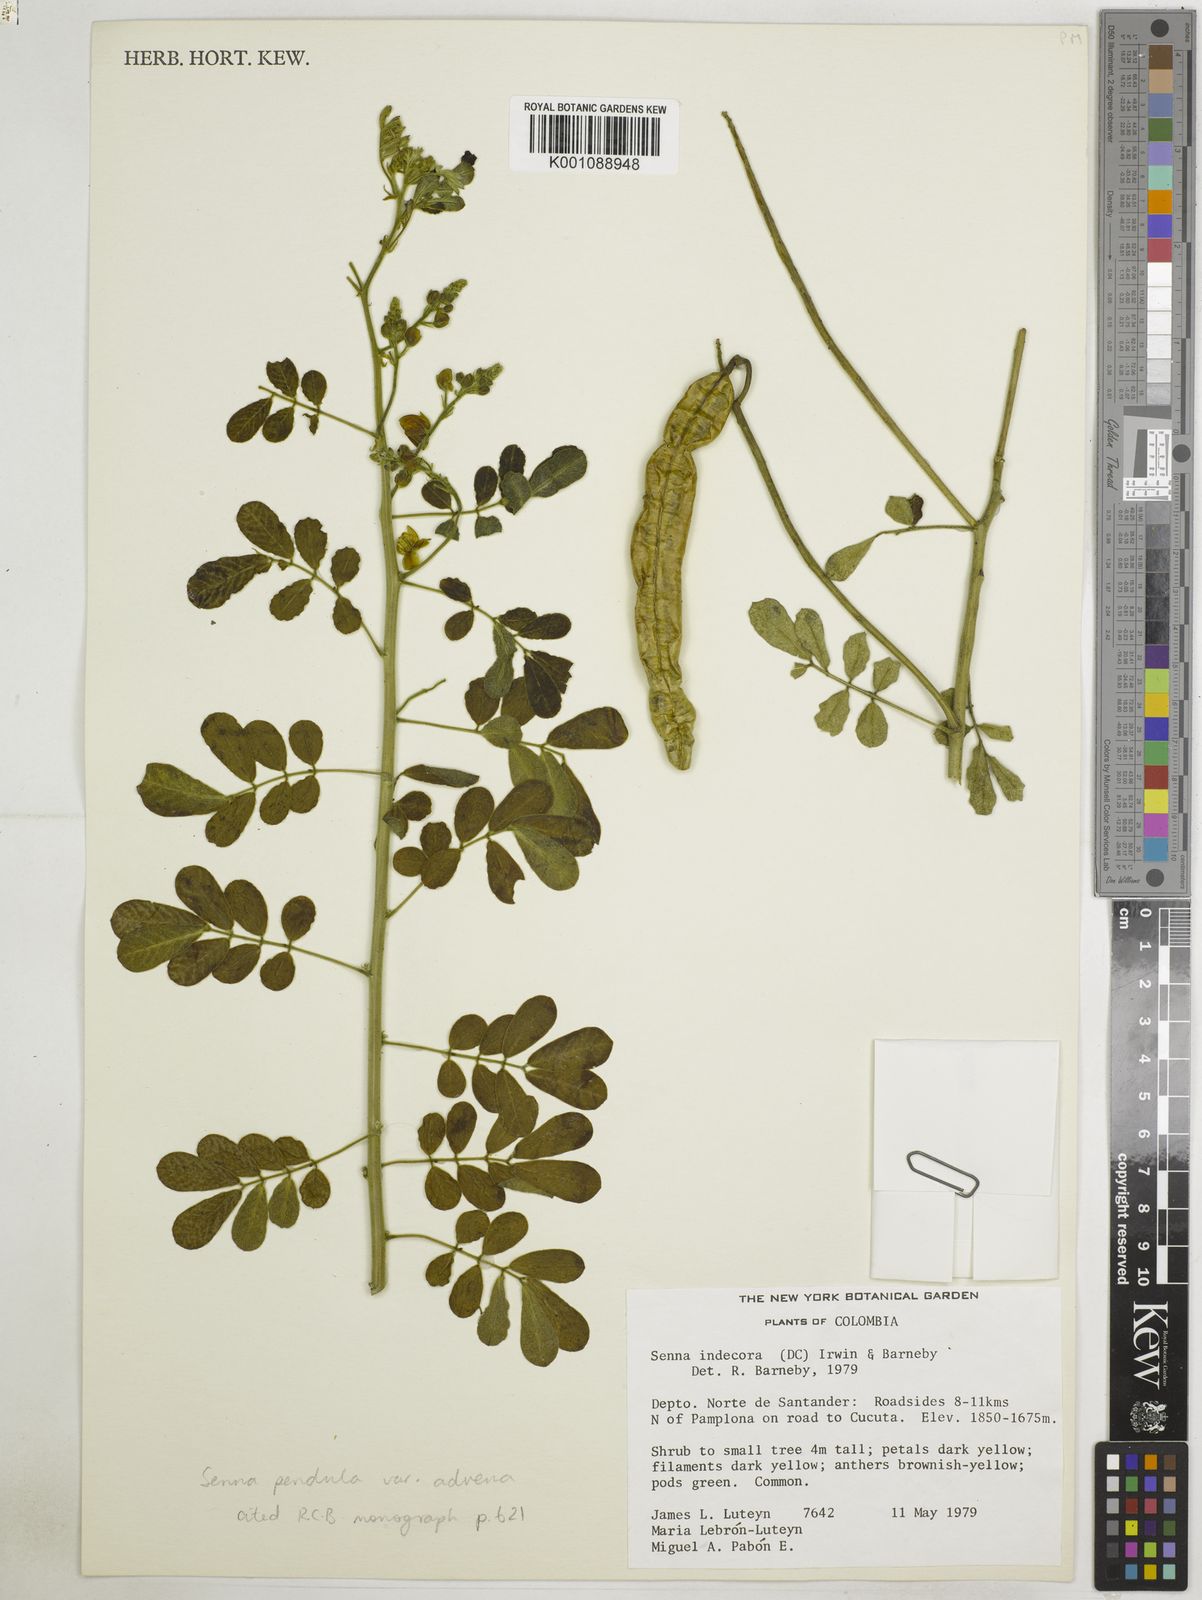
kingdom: Plantae
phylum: Tracheophyta
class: Magnoliopsida
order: Fabales
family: Fabaceae
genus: Senna
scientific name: Senna pendula
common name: Easter cassia
